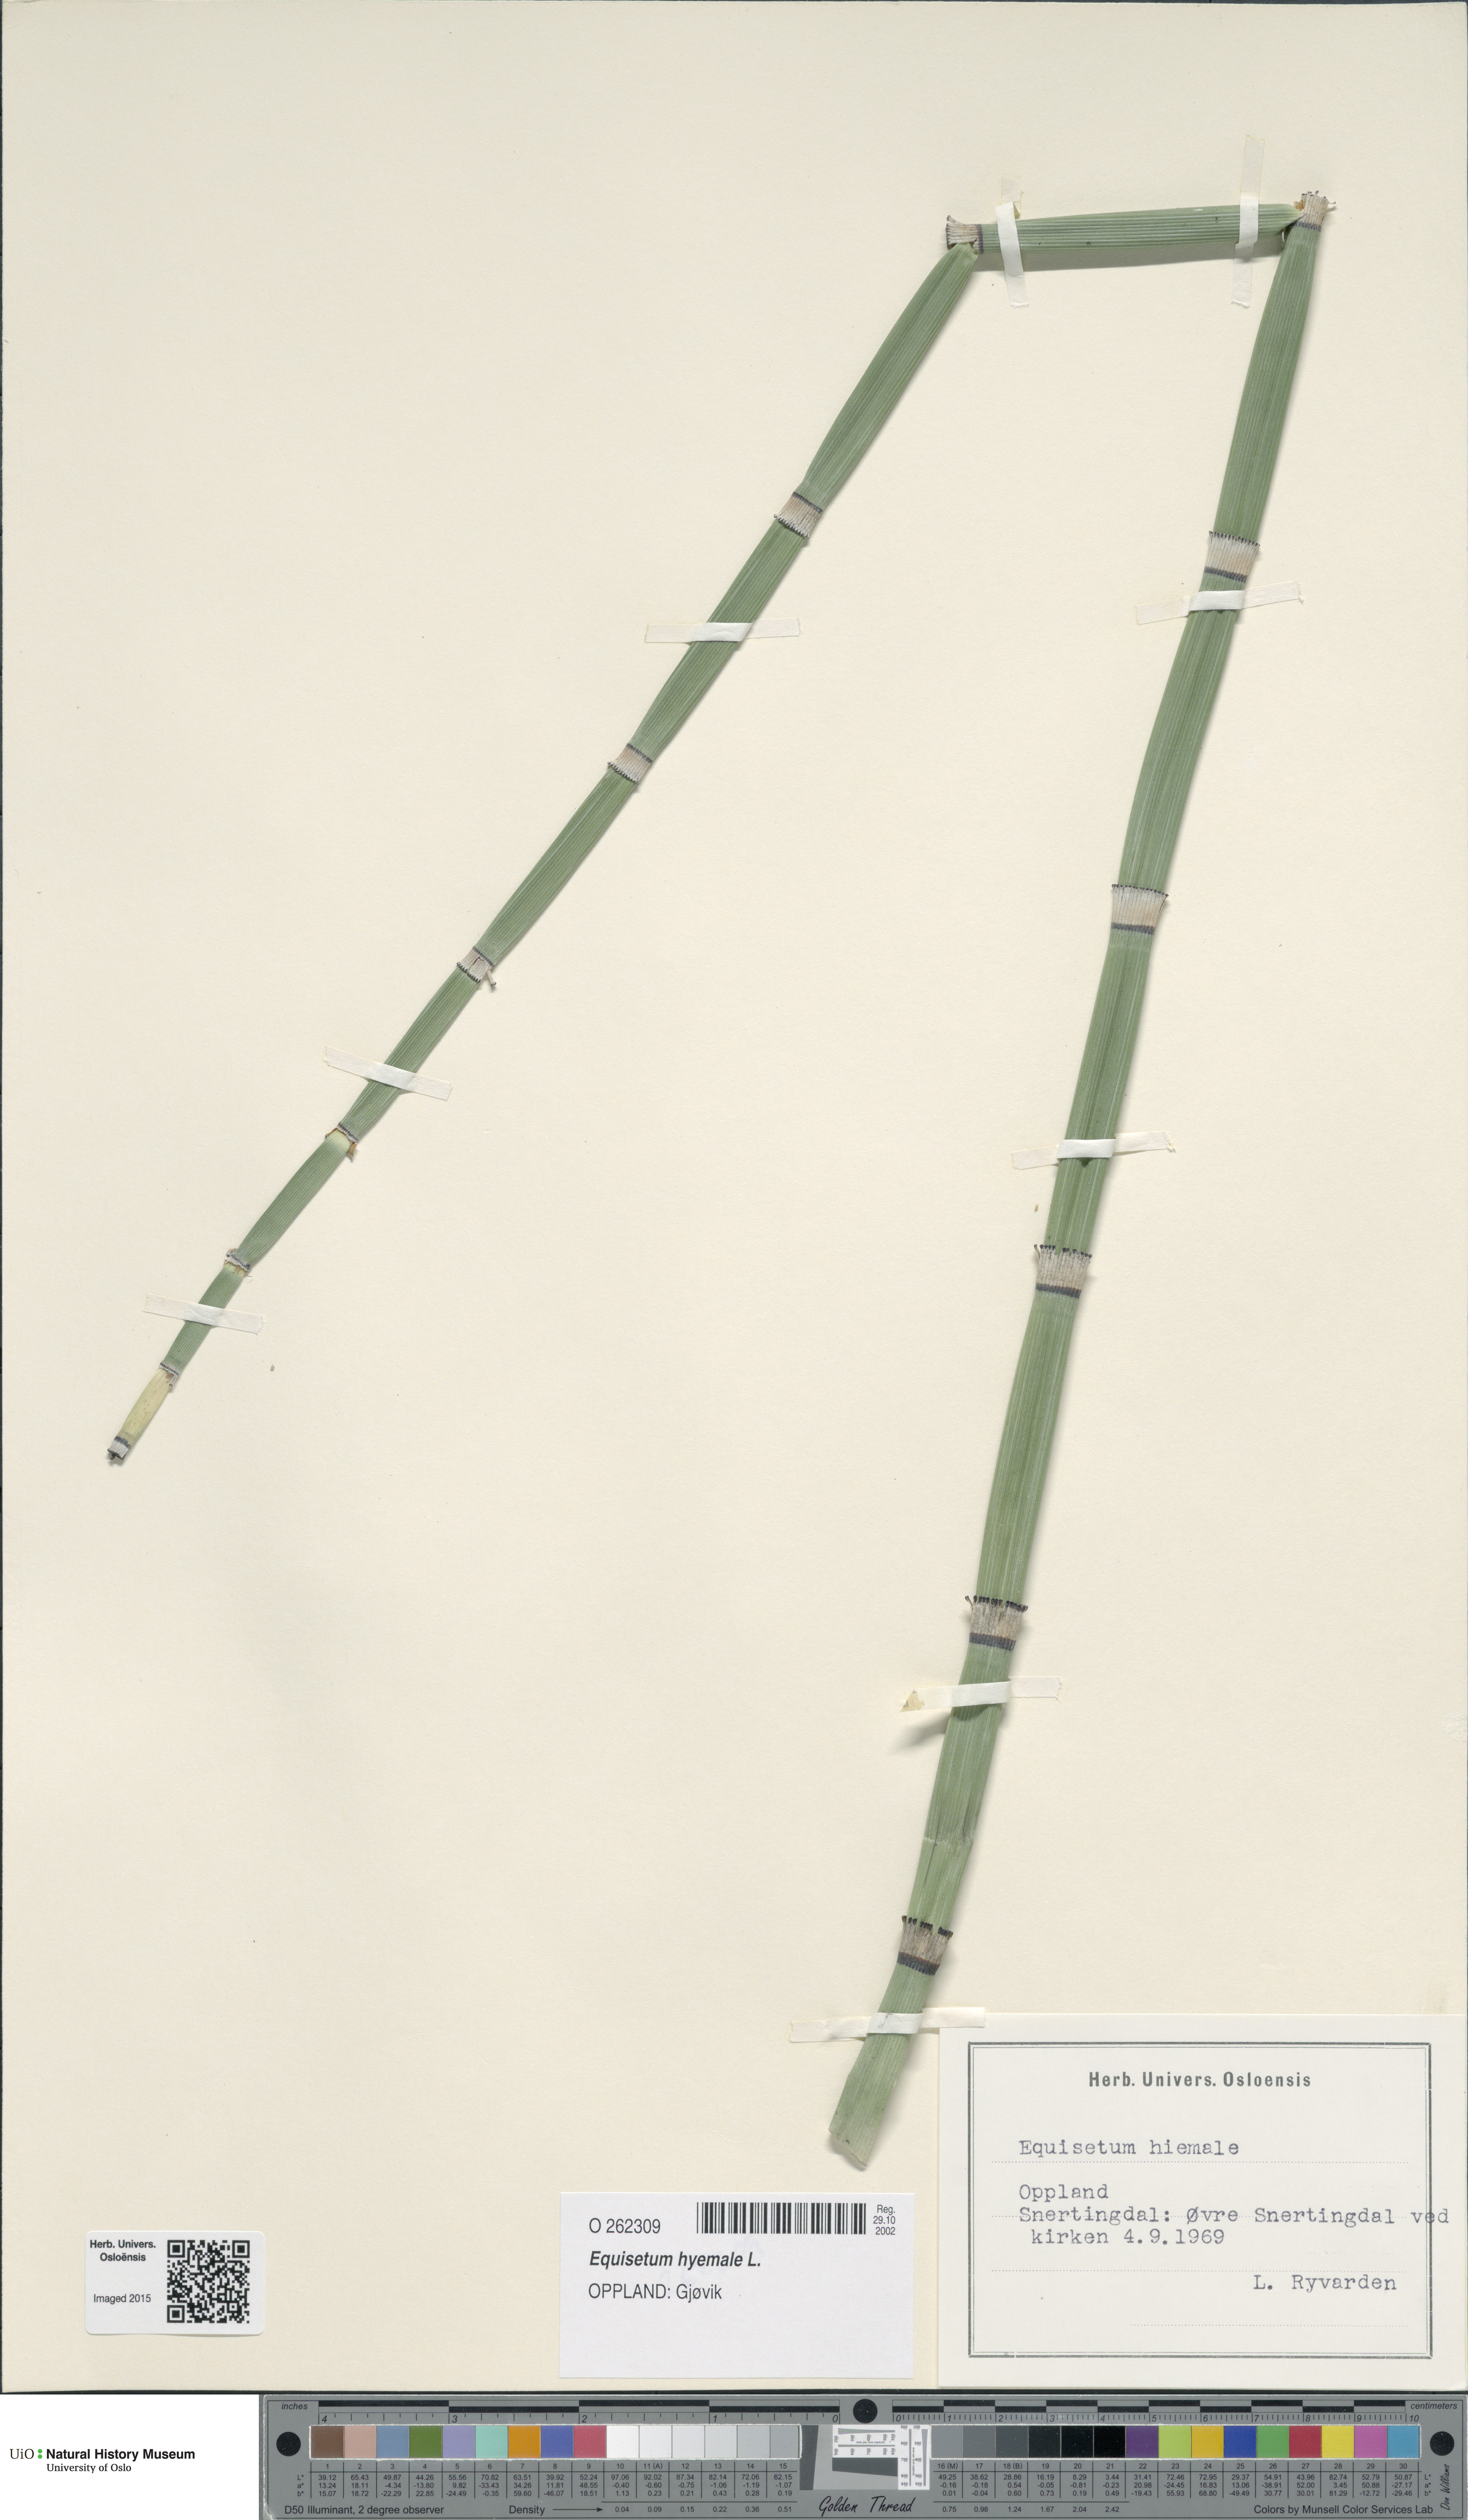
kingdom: Plantae
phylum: Tracheophyta
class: Polypodiopsida
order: Equisetales
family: Equisetaceae
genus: Equisetum
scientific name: Equisetum hyemale
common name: Rough horsetail
